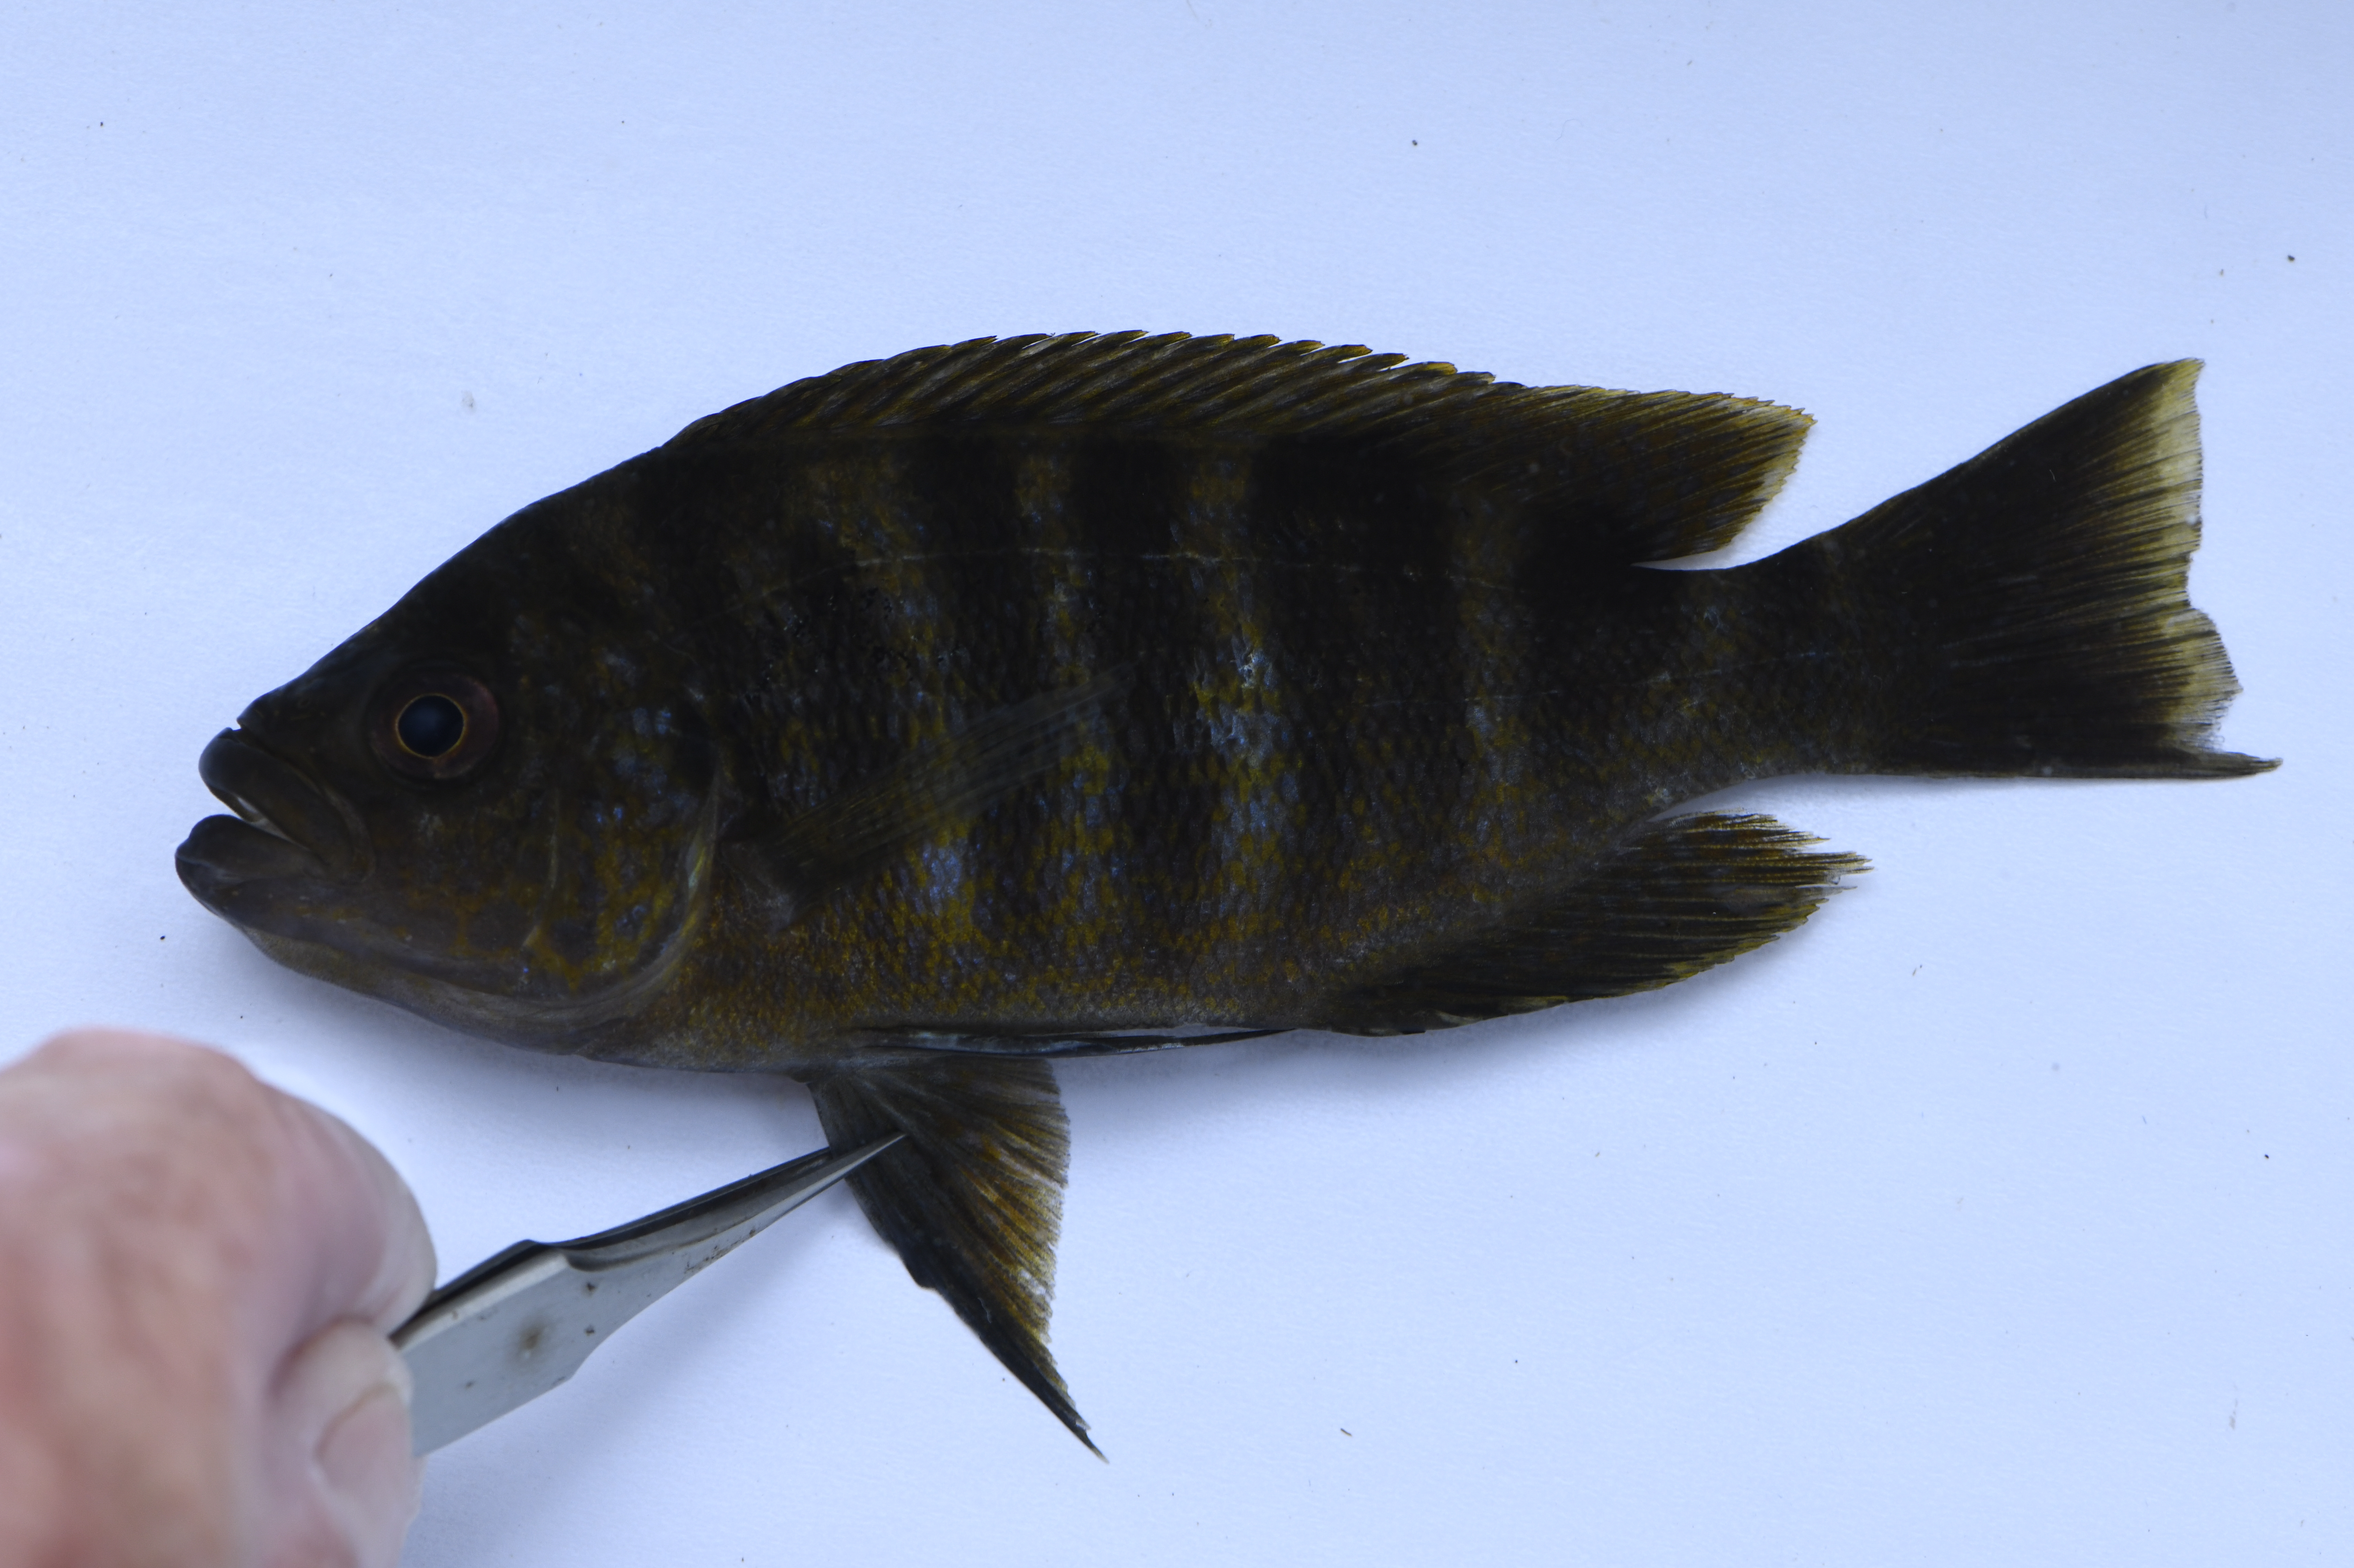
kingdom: Animalia
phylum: Chordata
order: Perciformes
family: Cichlidae
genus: Plecodus
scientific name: Plecodus straeleni
